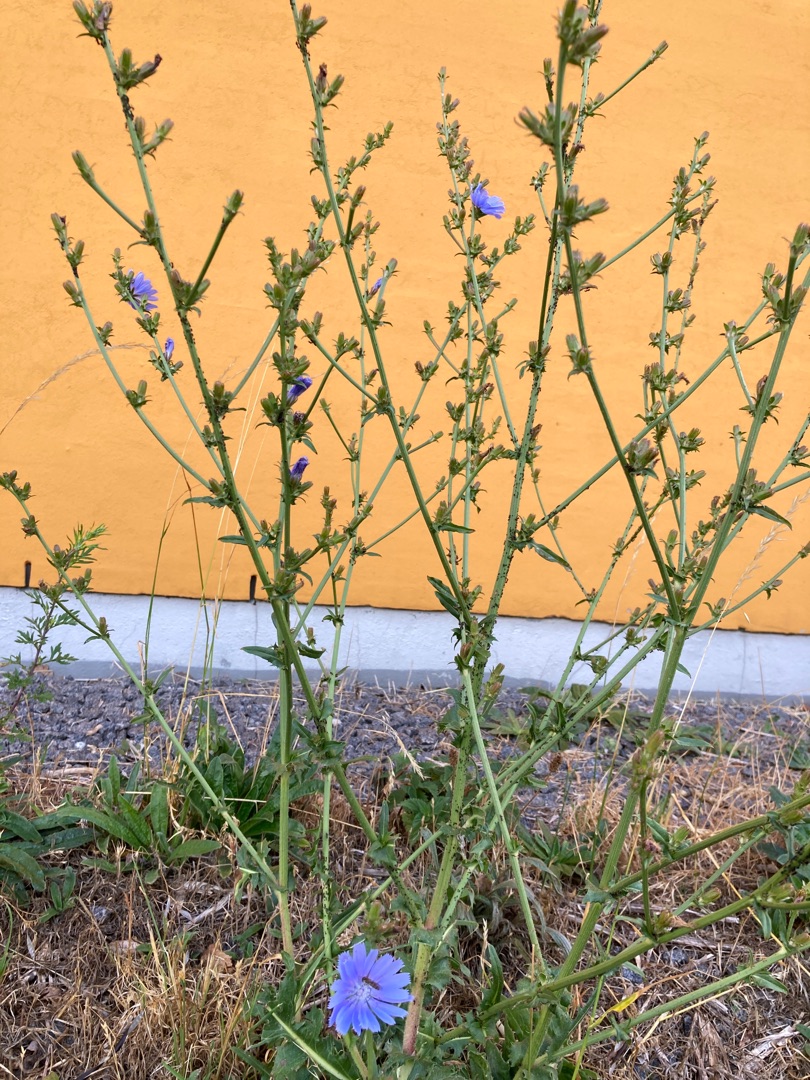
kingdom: Plantae
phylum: Tracheophyta
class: Magnoliopsida
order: Asterales
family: Asteraceae
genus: Cichorium
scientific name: Cichorium intybus
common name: Cikorie
